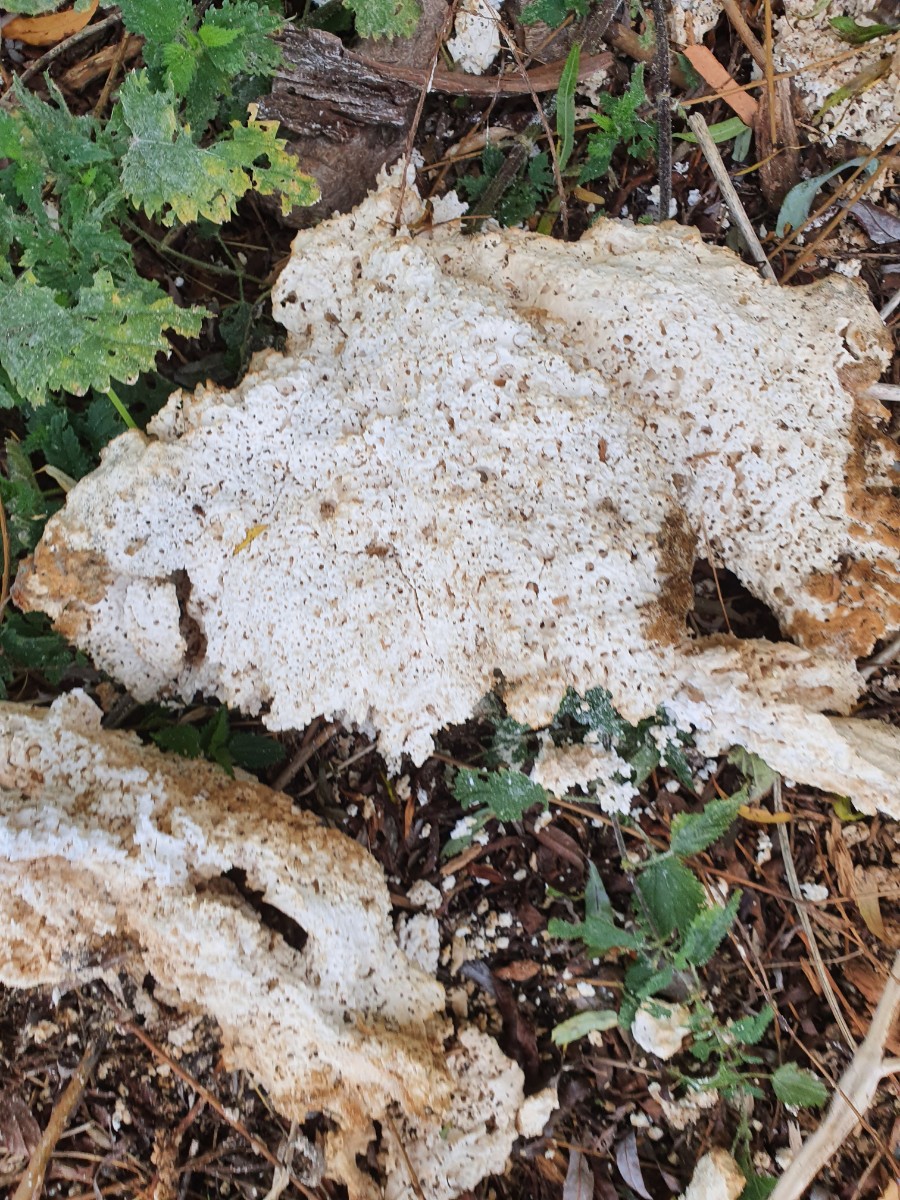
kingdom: Fungi
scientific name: Fungi
